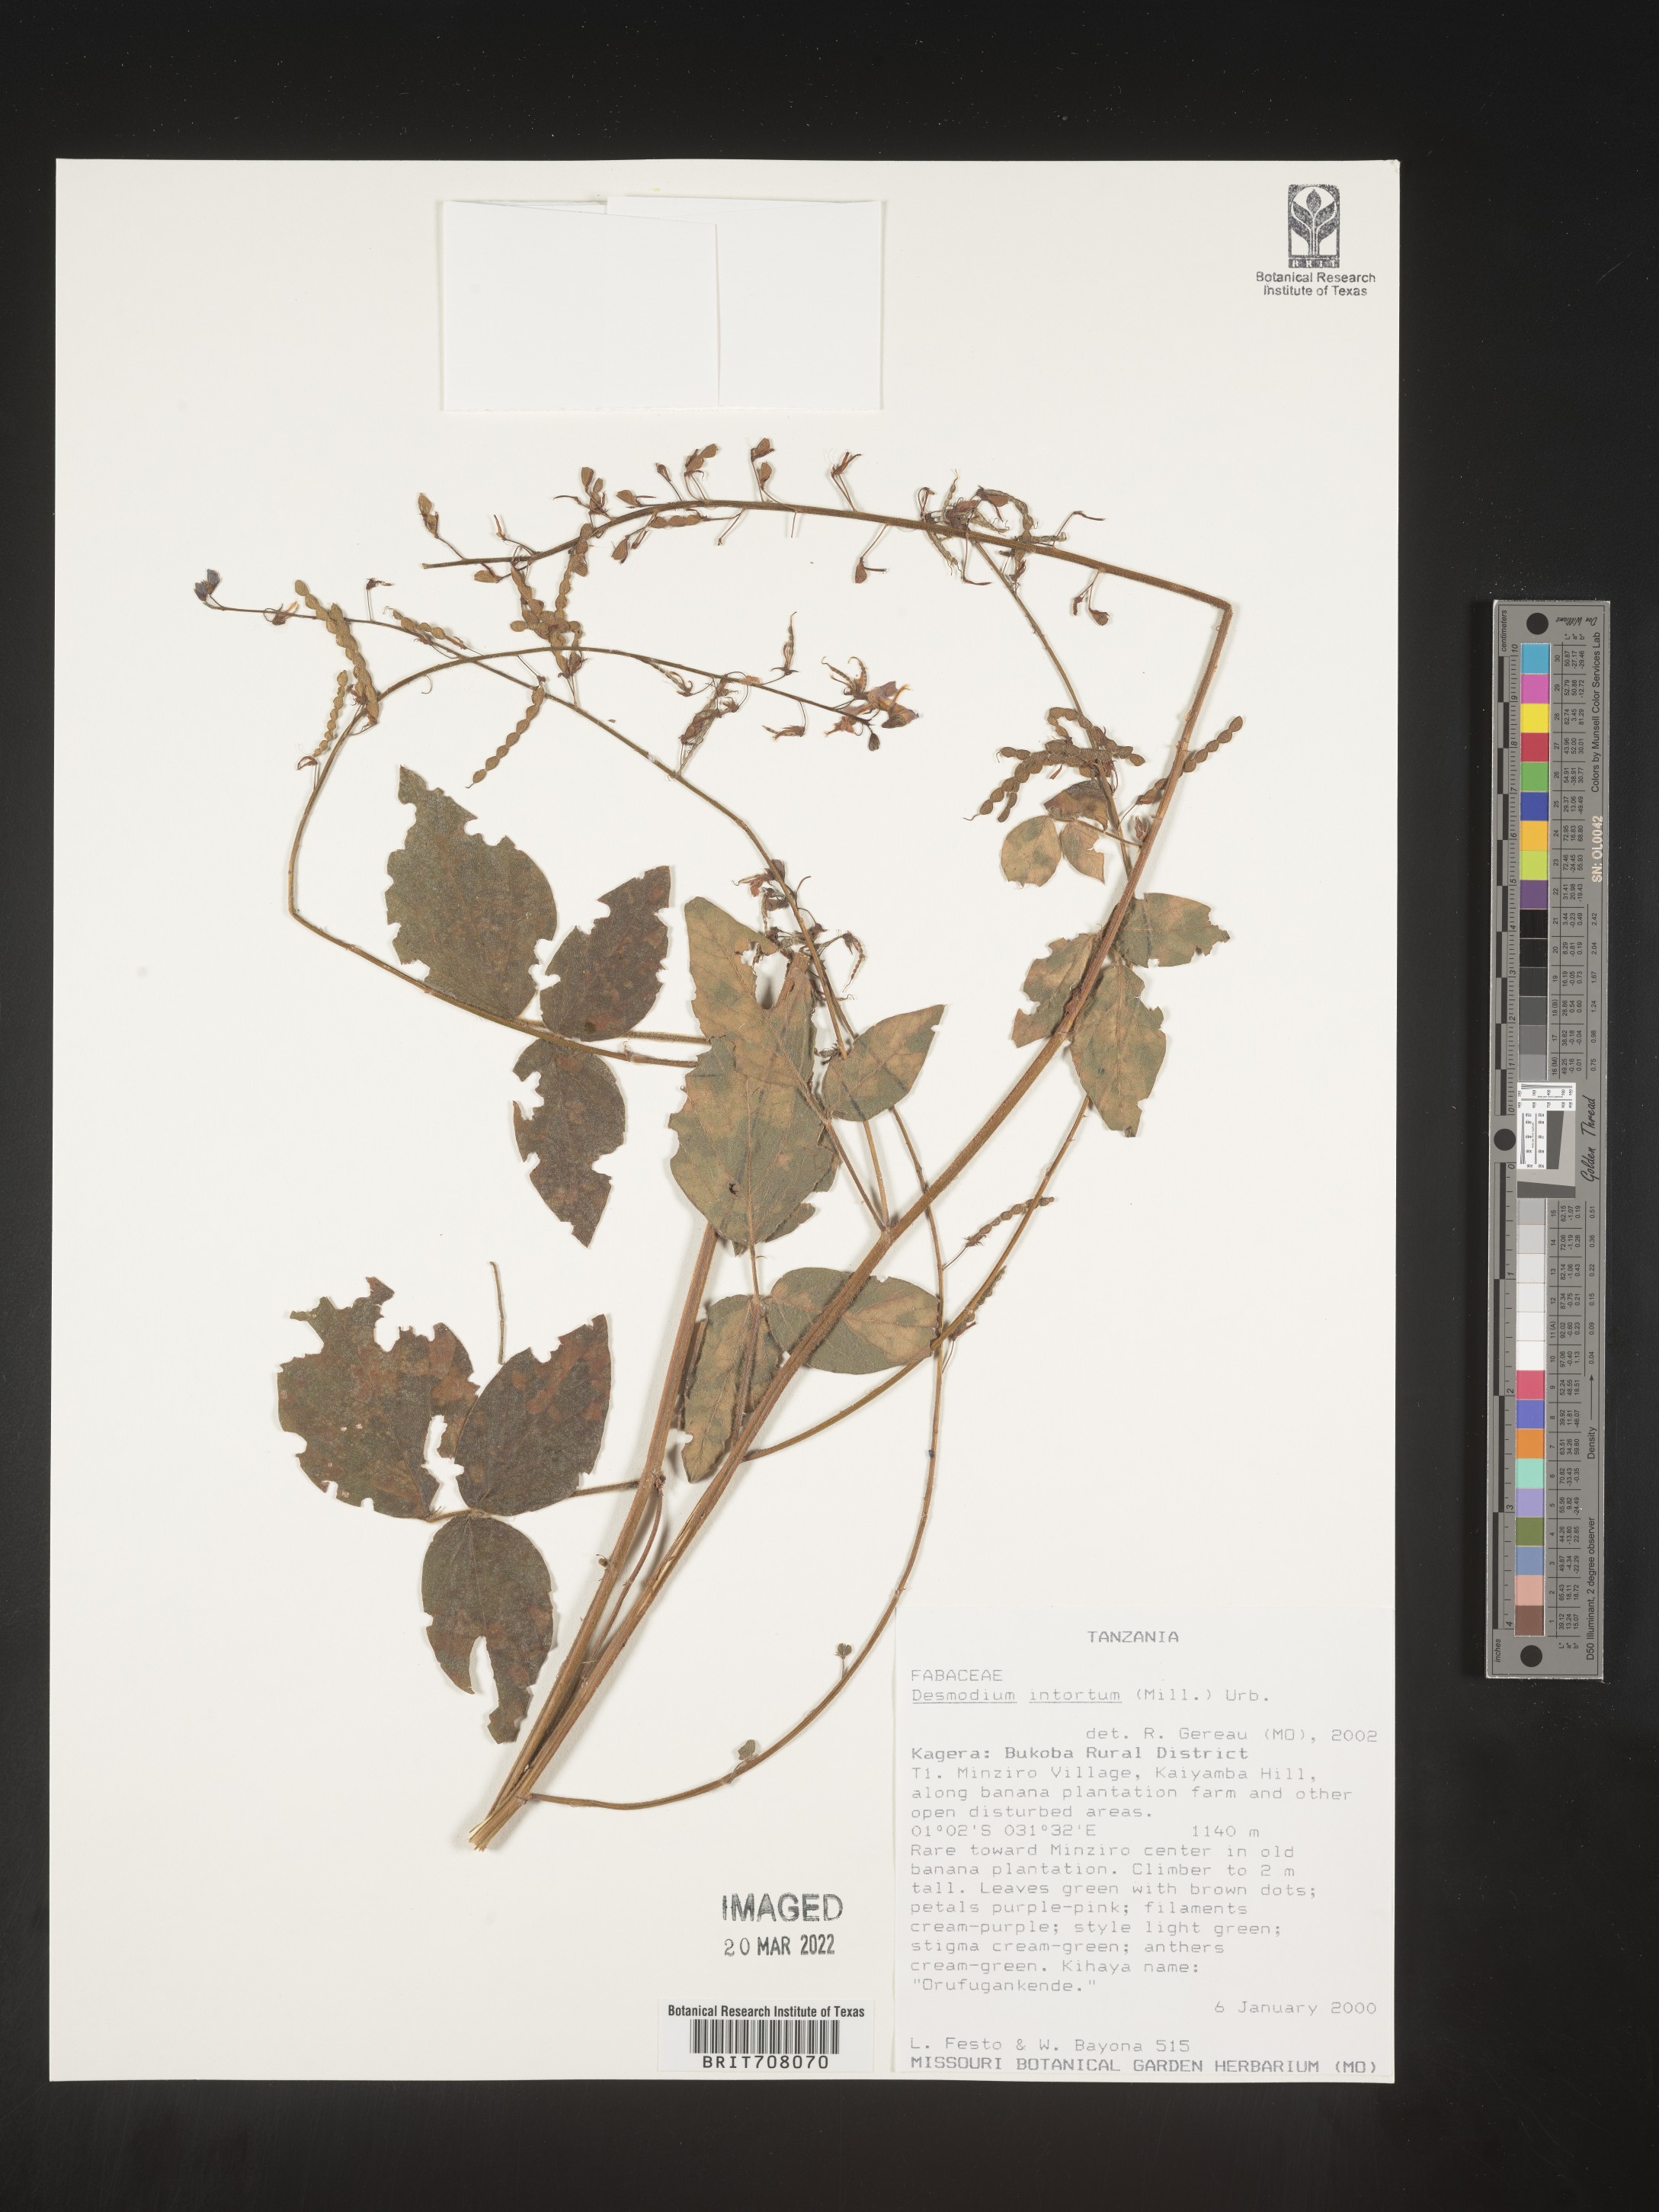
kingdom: Plantae
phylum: Tracheophyta
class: Magnoliopsida
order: Fabales
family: Fabaceae
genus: Desmodium
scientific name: Desmodium
